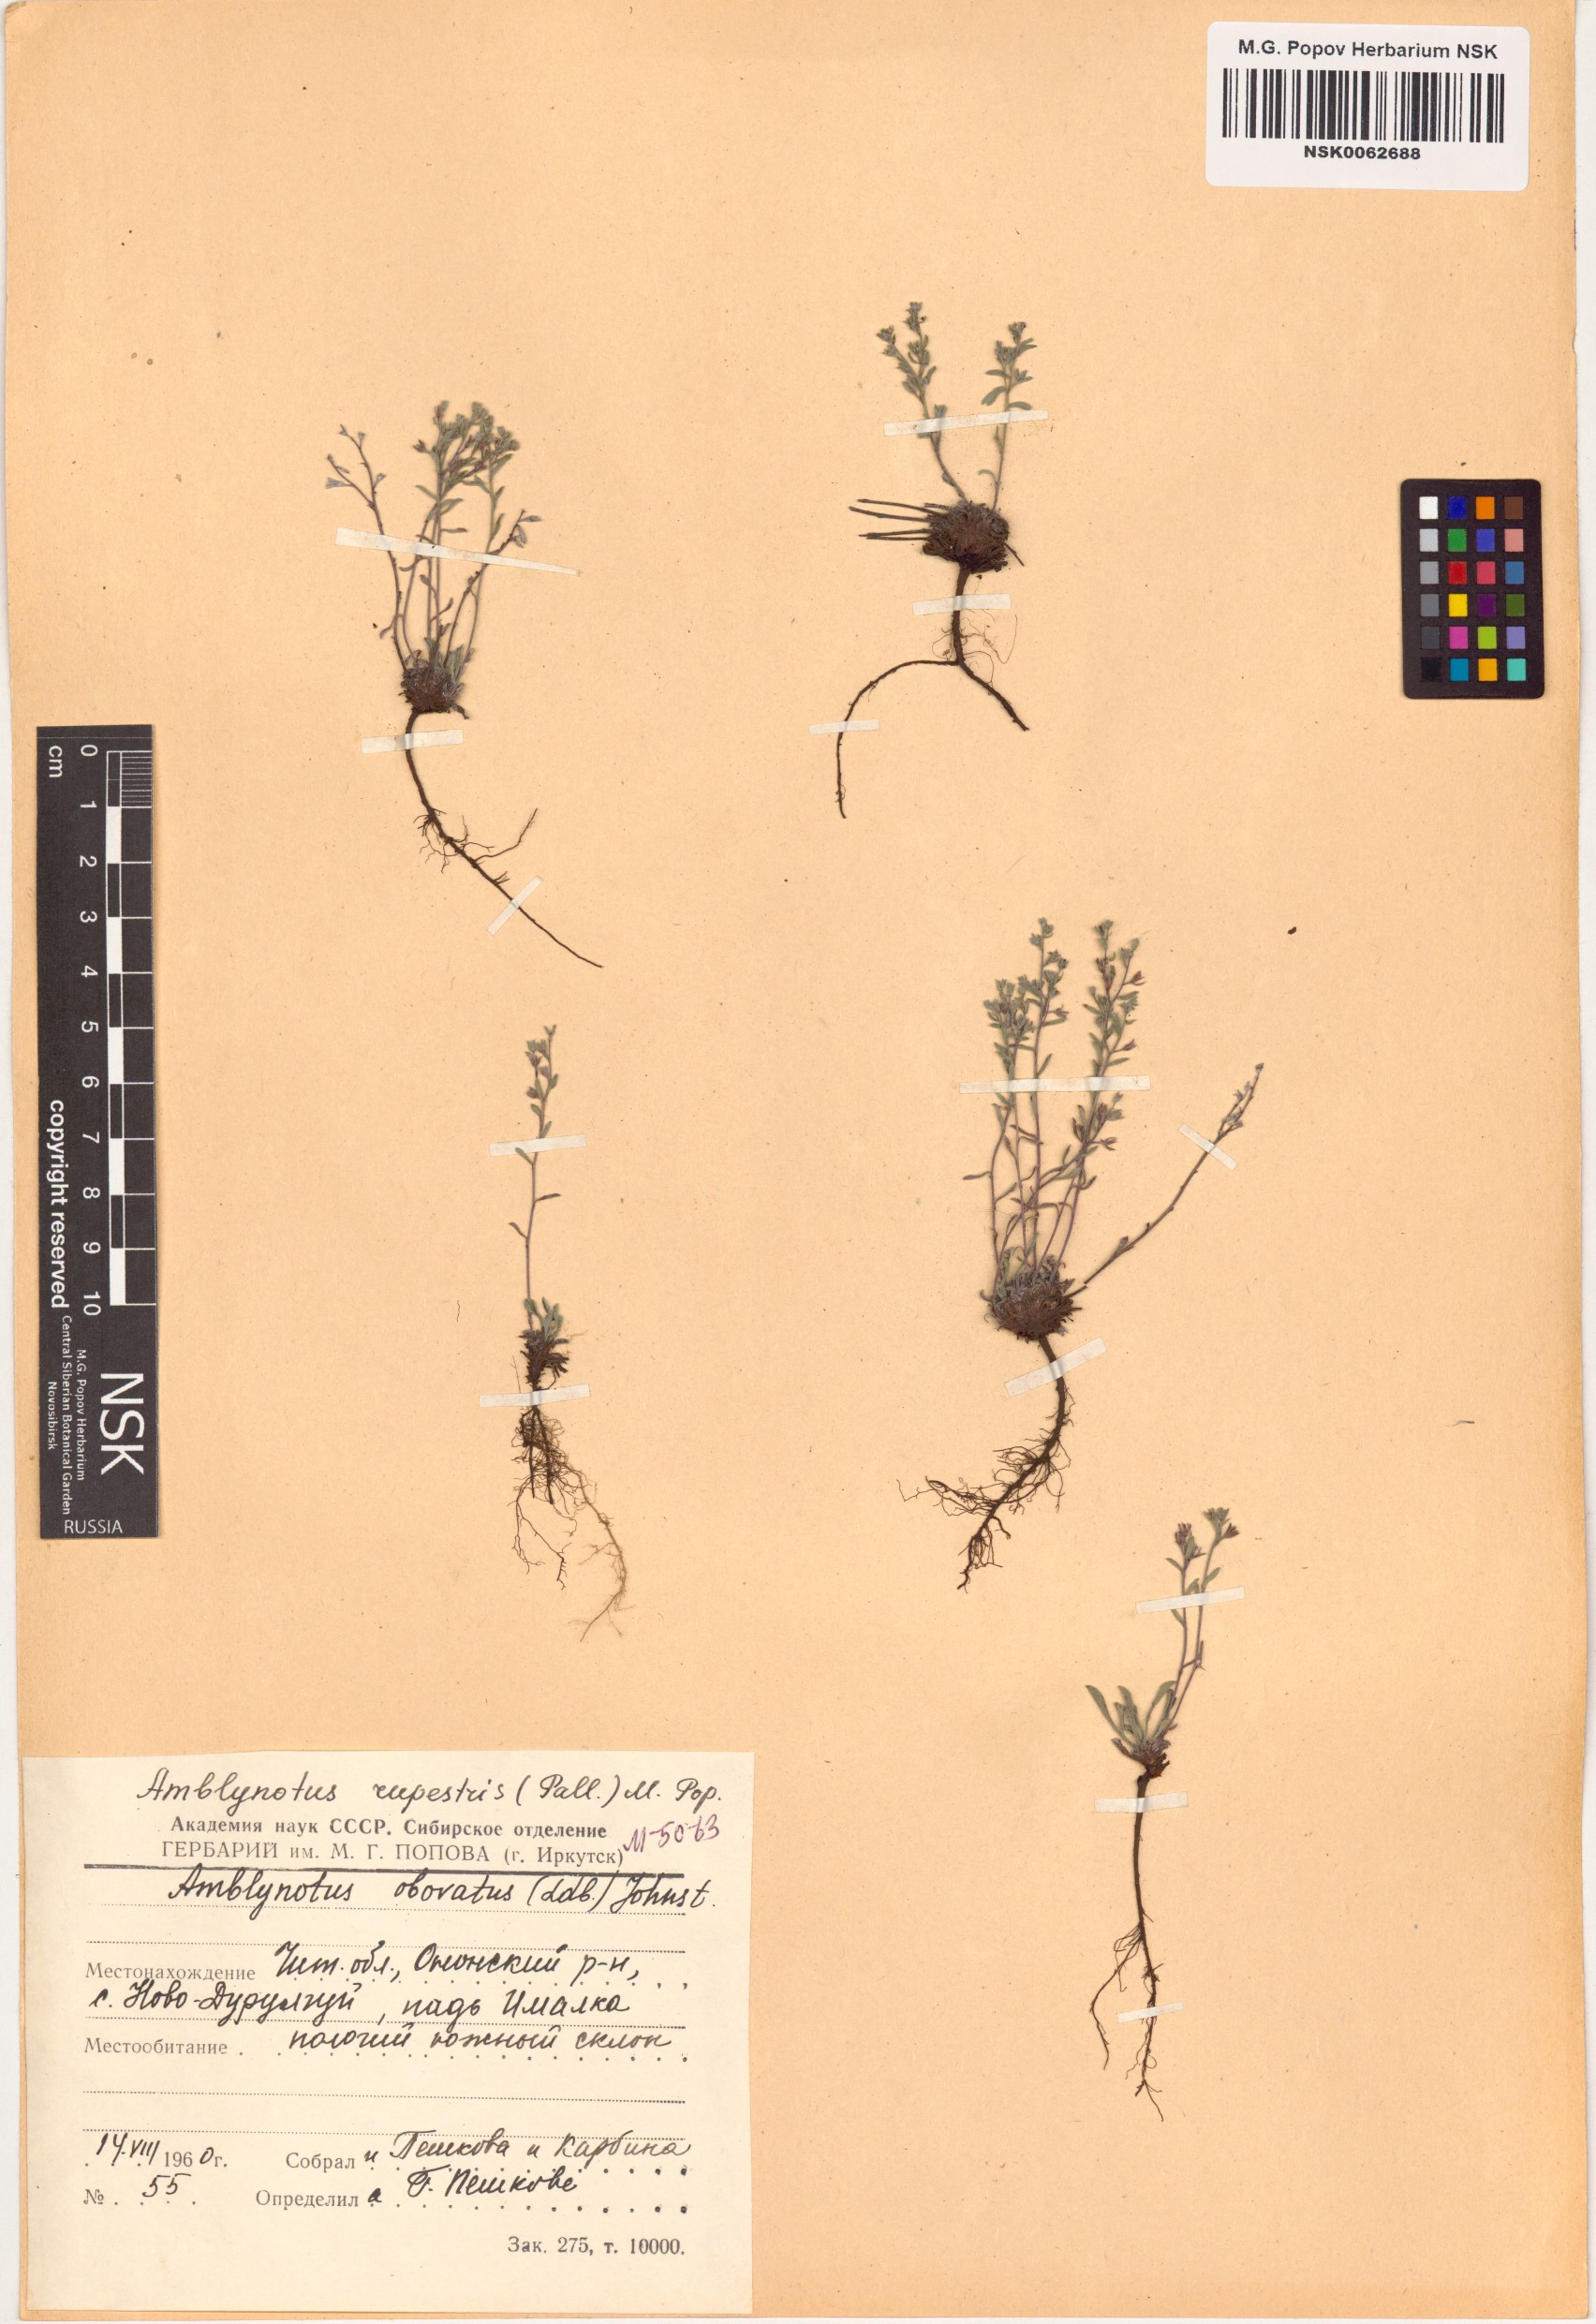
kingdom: Plantae
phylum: Tracheophyta
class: Magnoliopsida
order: Boraginales
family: Boraginaceae
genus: Eritrichium
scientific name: Eritrichium rupestre
